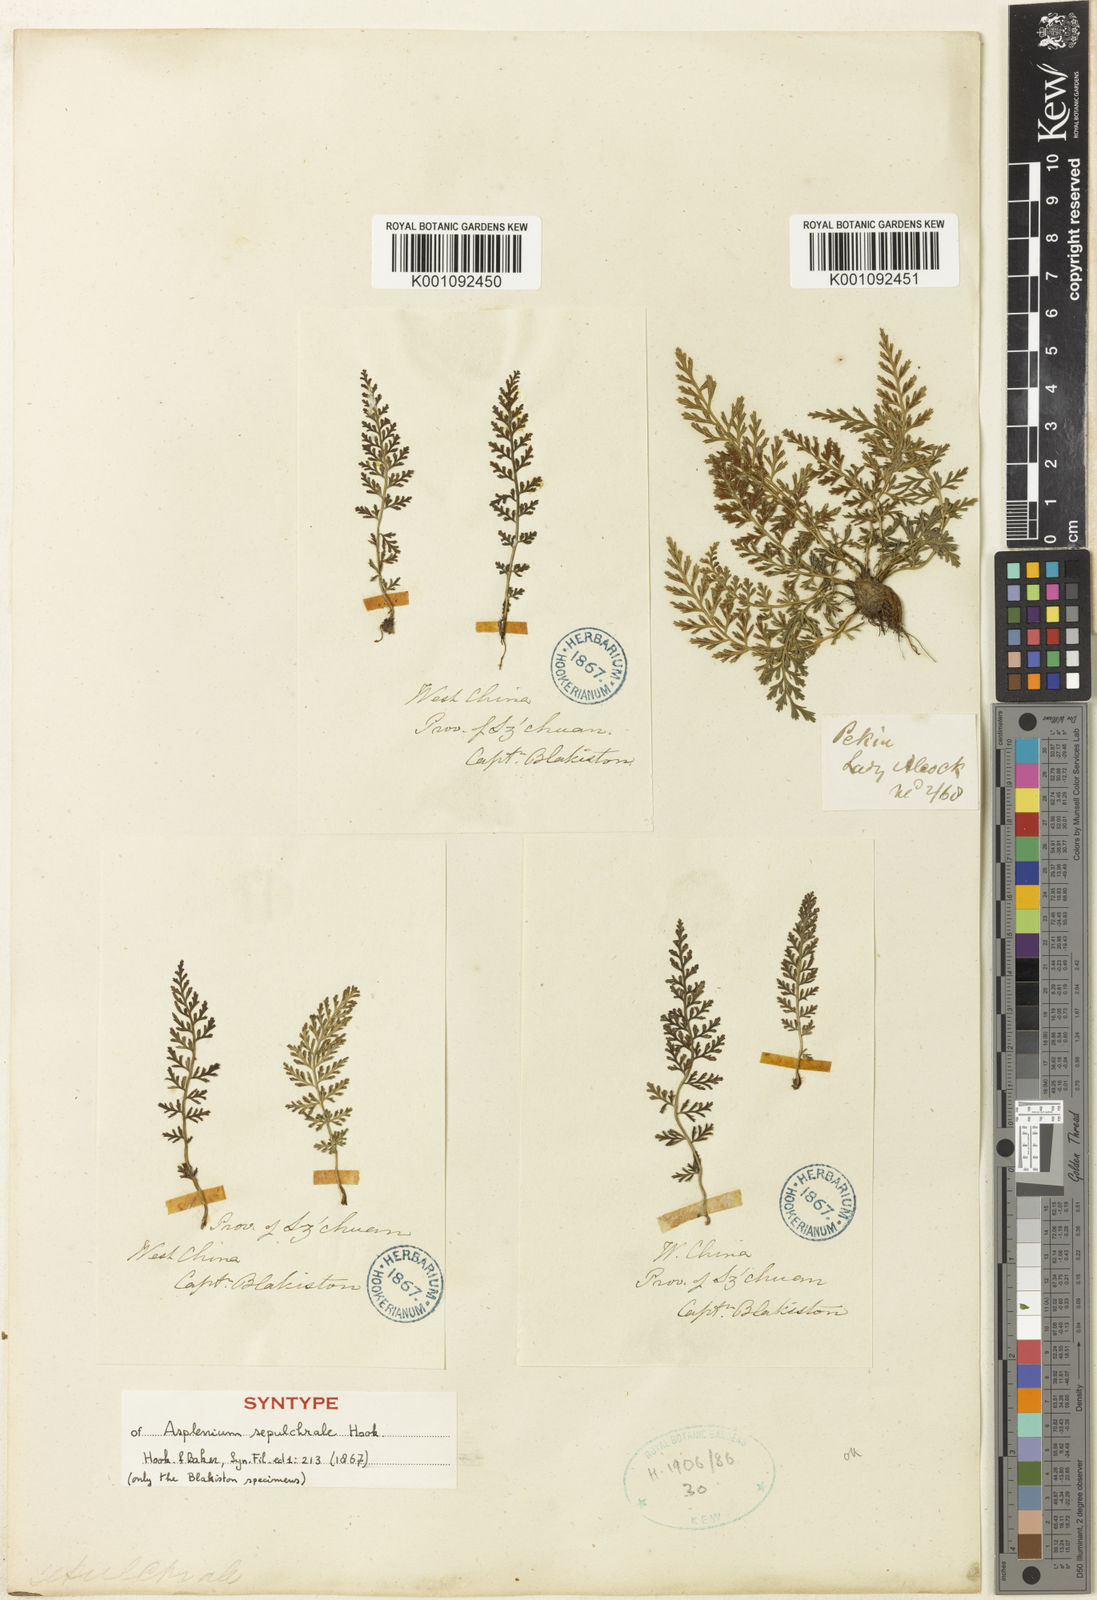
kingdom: Plantae
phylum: Tracheophyta
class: Polypodiopsida
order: Polypodiales
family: Aspleniaceae
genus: Asplenium
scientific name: Asplenium sarelii
